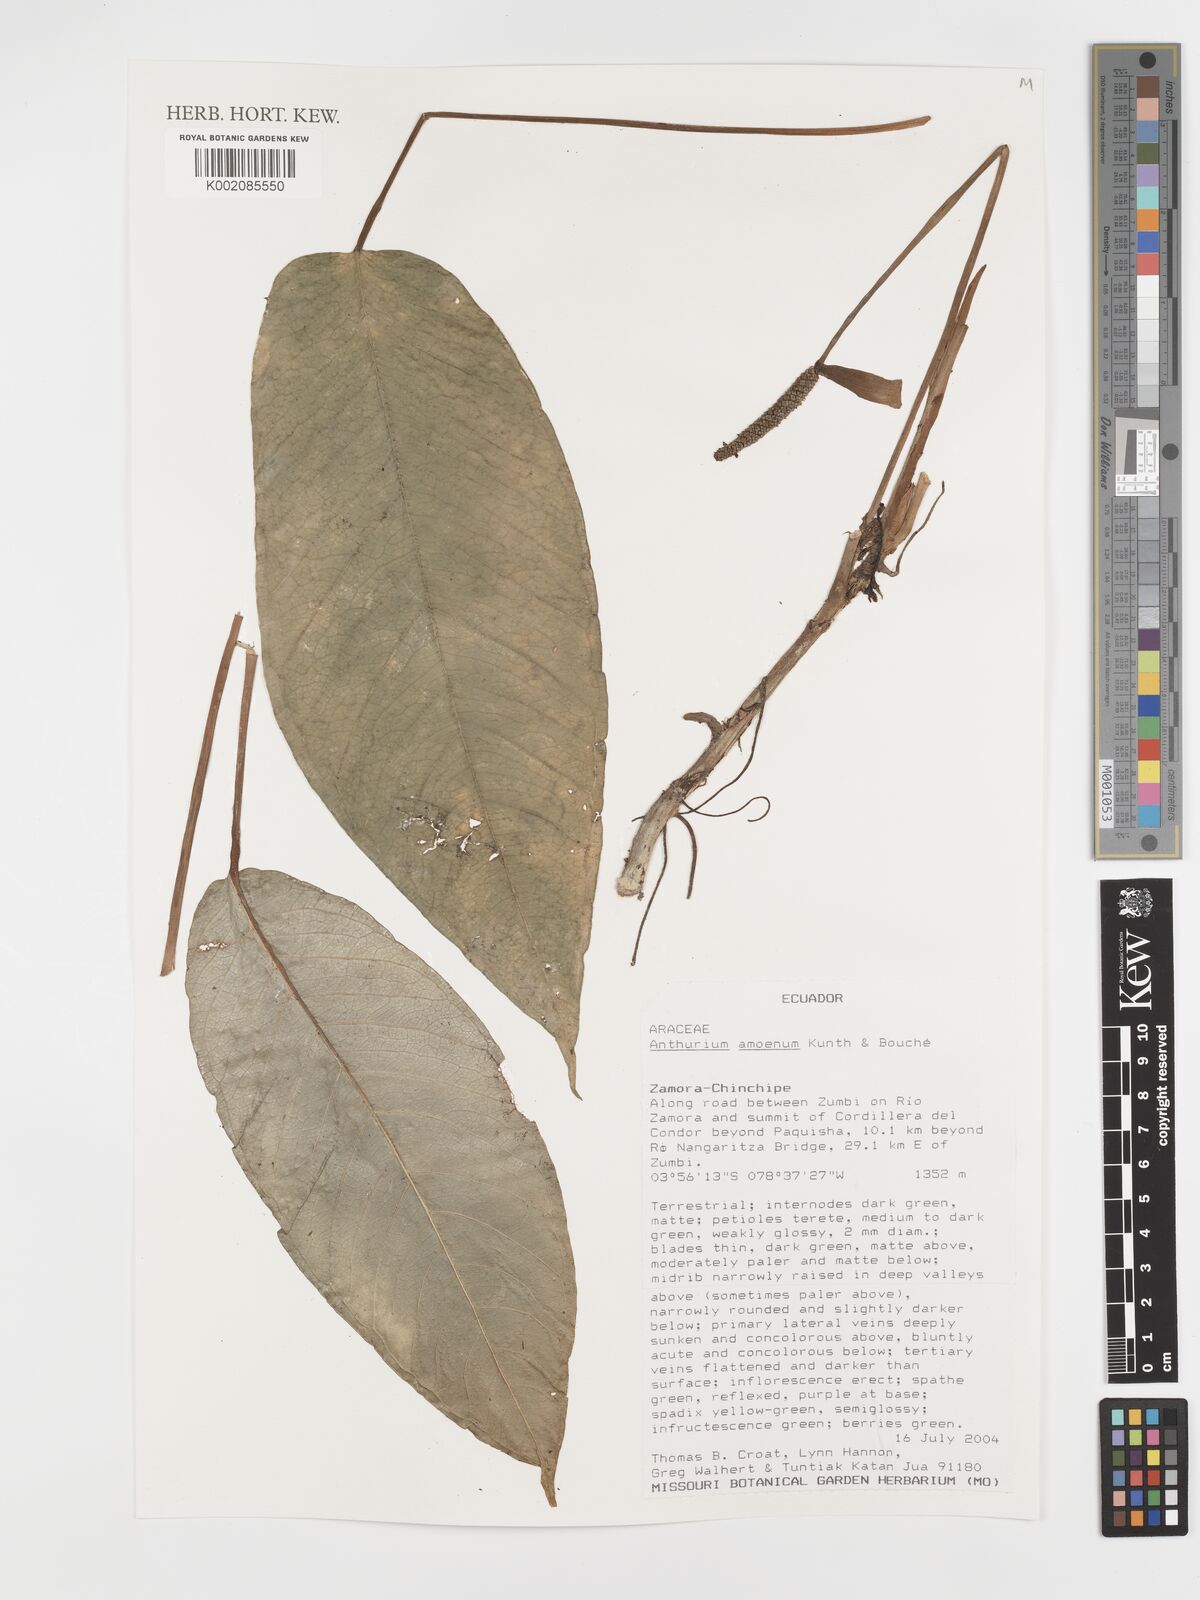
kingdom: Plantae
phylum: Tracheophyta
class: Liliopsida
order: Alismatales
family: Araceae
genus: Anthurium
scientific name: Anthurium amoenum
